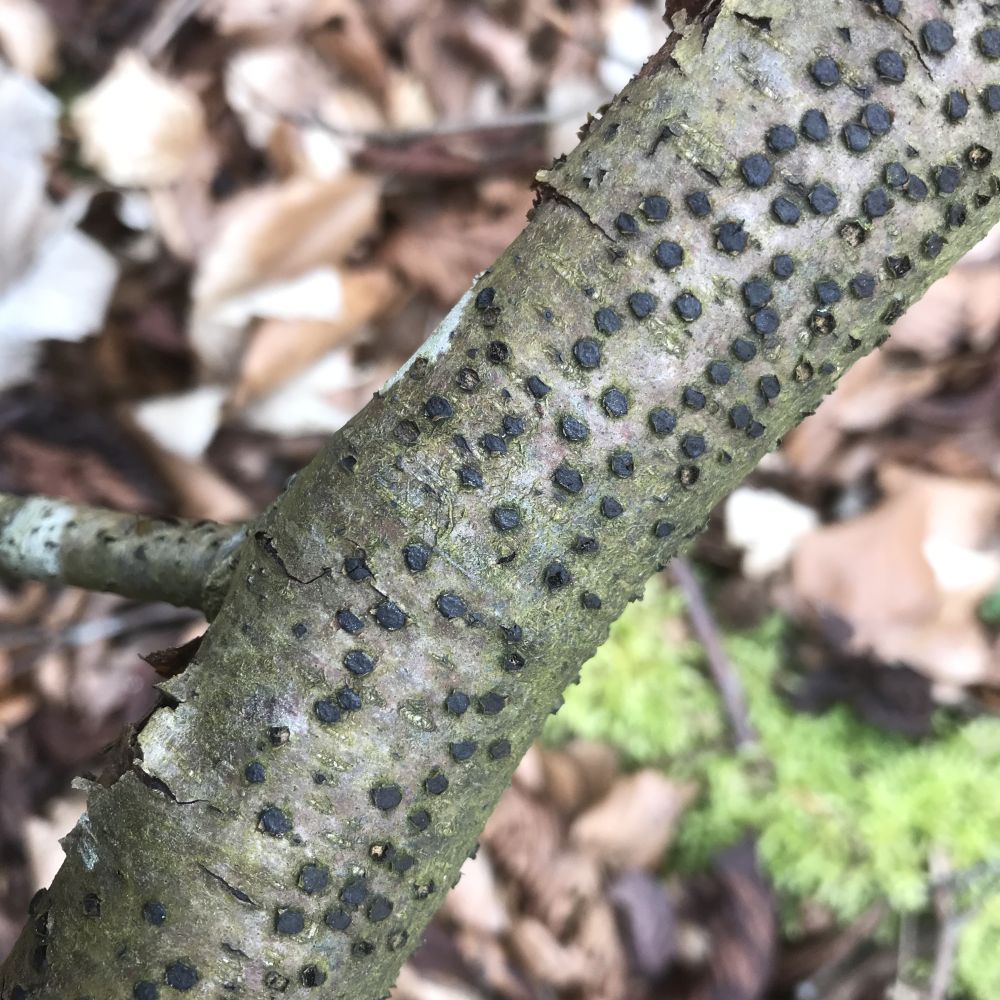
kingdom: Fungi
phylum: Ascomycota
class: Sordariomycetes
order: Xylariales
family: Diatrypaceae
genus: Diatrype
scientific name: Diatrype disciformis
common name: kant-kulskorpe
